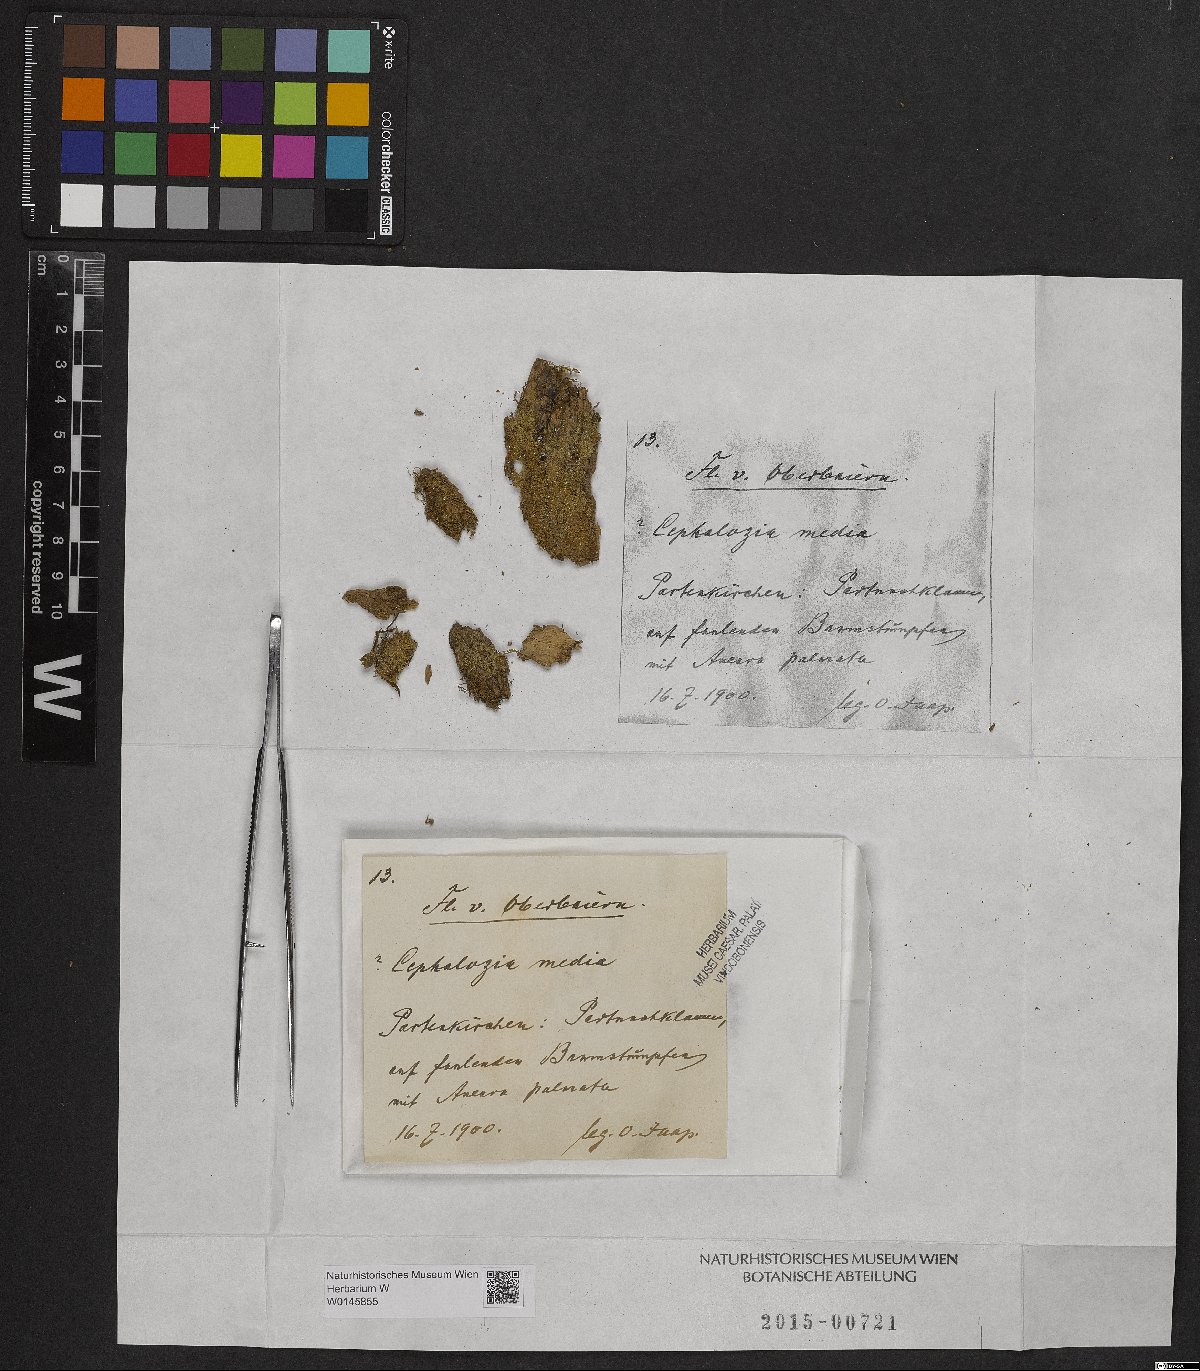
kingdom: Plantae
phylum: Marchantiophyta
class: Jungermanniopsida
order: Jungermanniales
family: Cephaloziaceae
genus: Fuscocephaloziopsis
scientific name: Fuscocephaloziopsis lunulifolia
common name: Moon-leaved pincerwort
